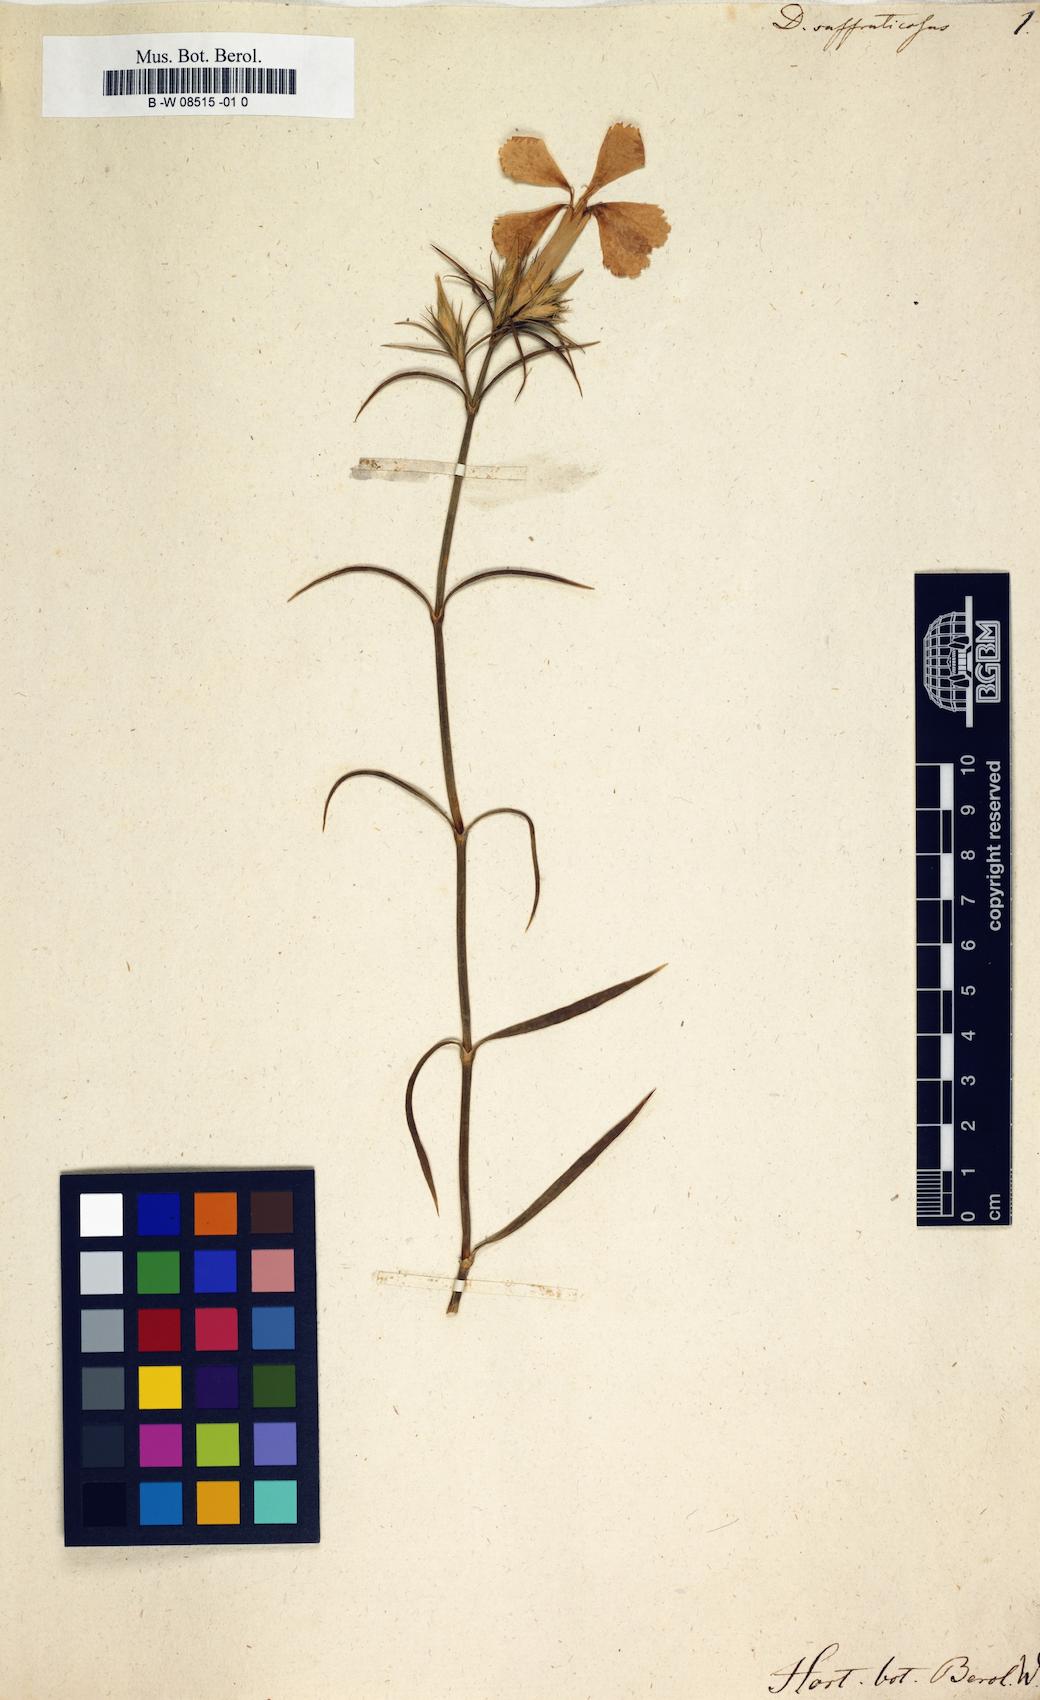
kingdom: Plantae
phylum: Tracheophyta
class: Magnoliopsida
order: Caryophyllales
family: Caryophyllaceae
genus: Dianthus
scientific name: Dianthus rupicola
